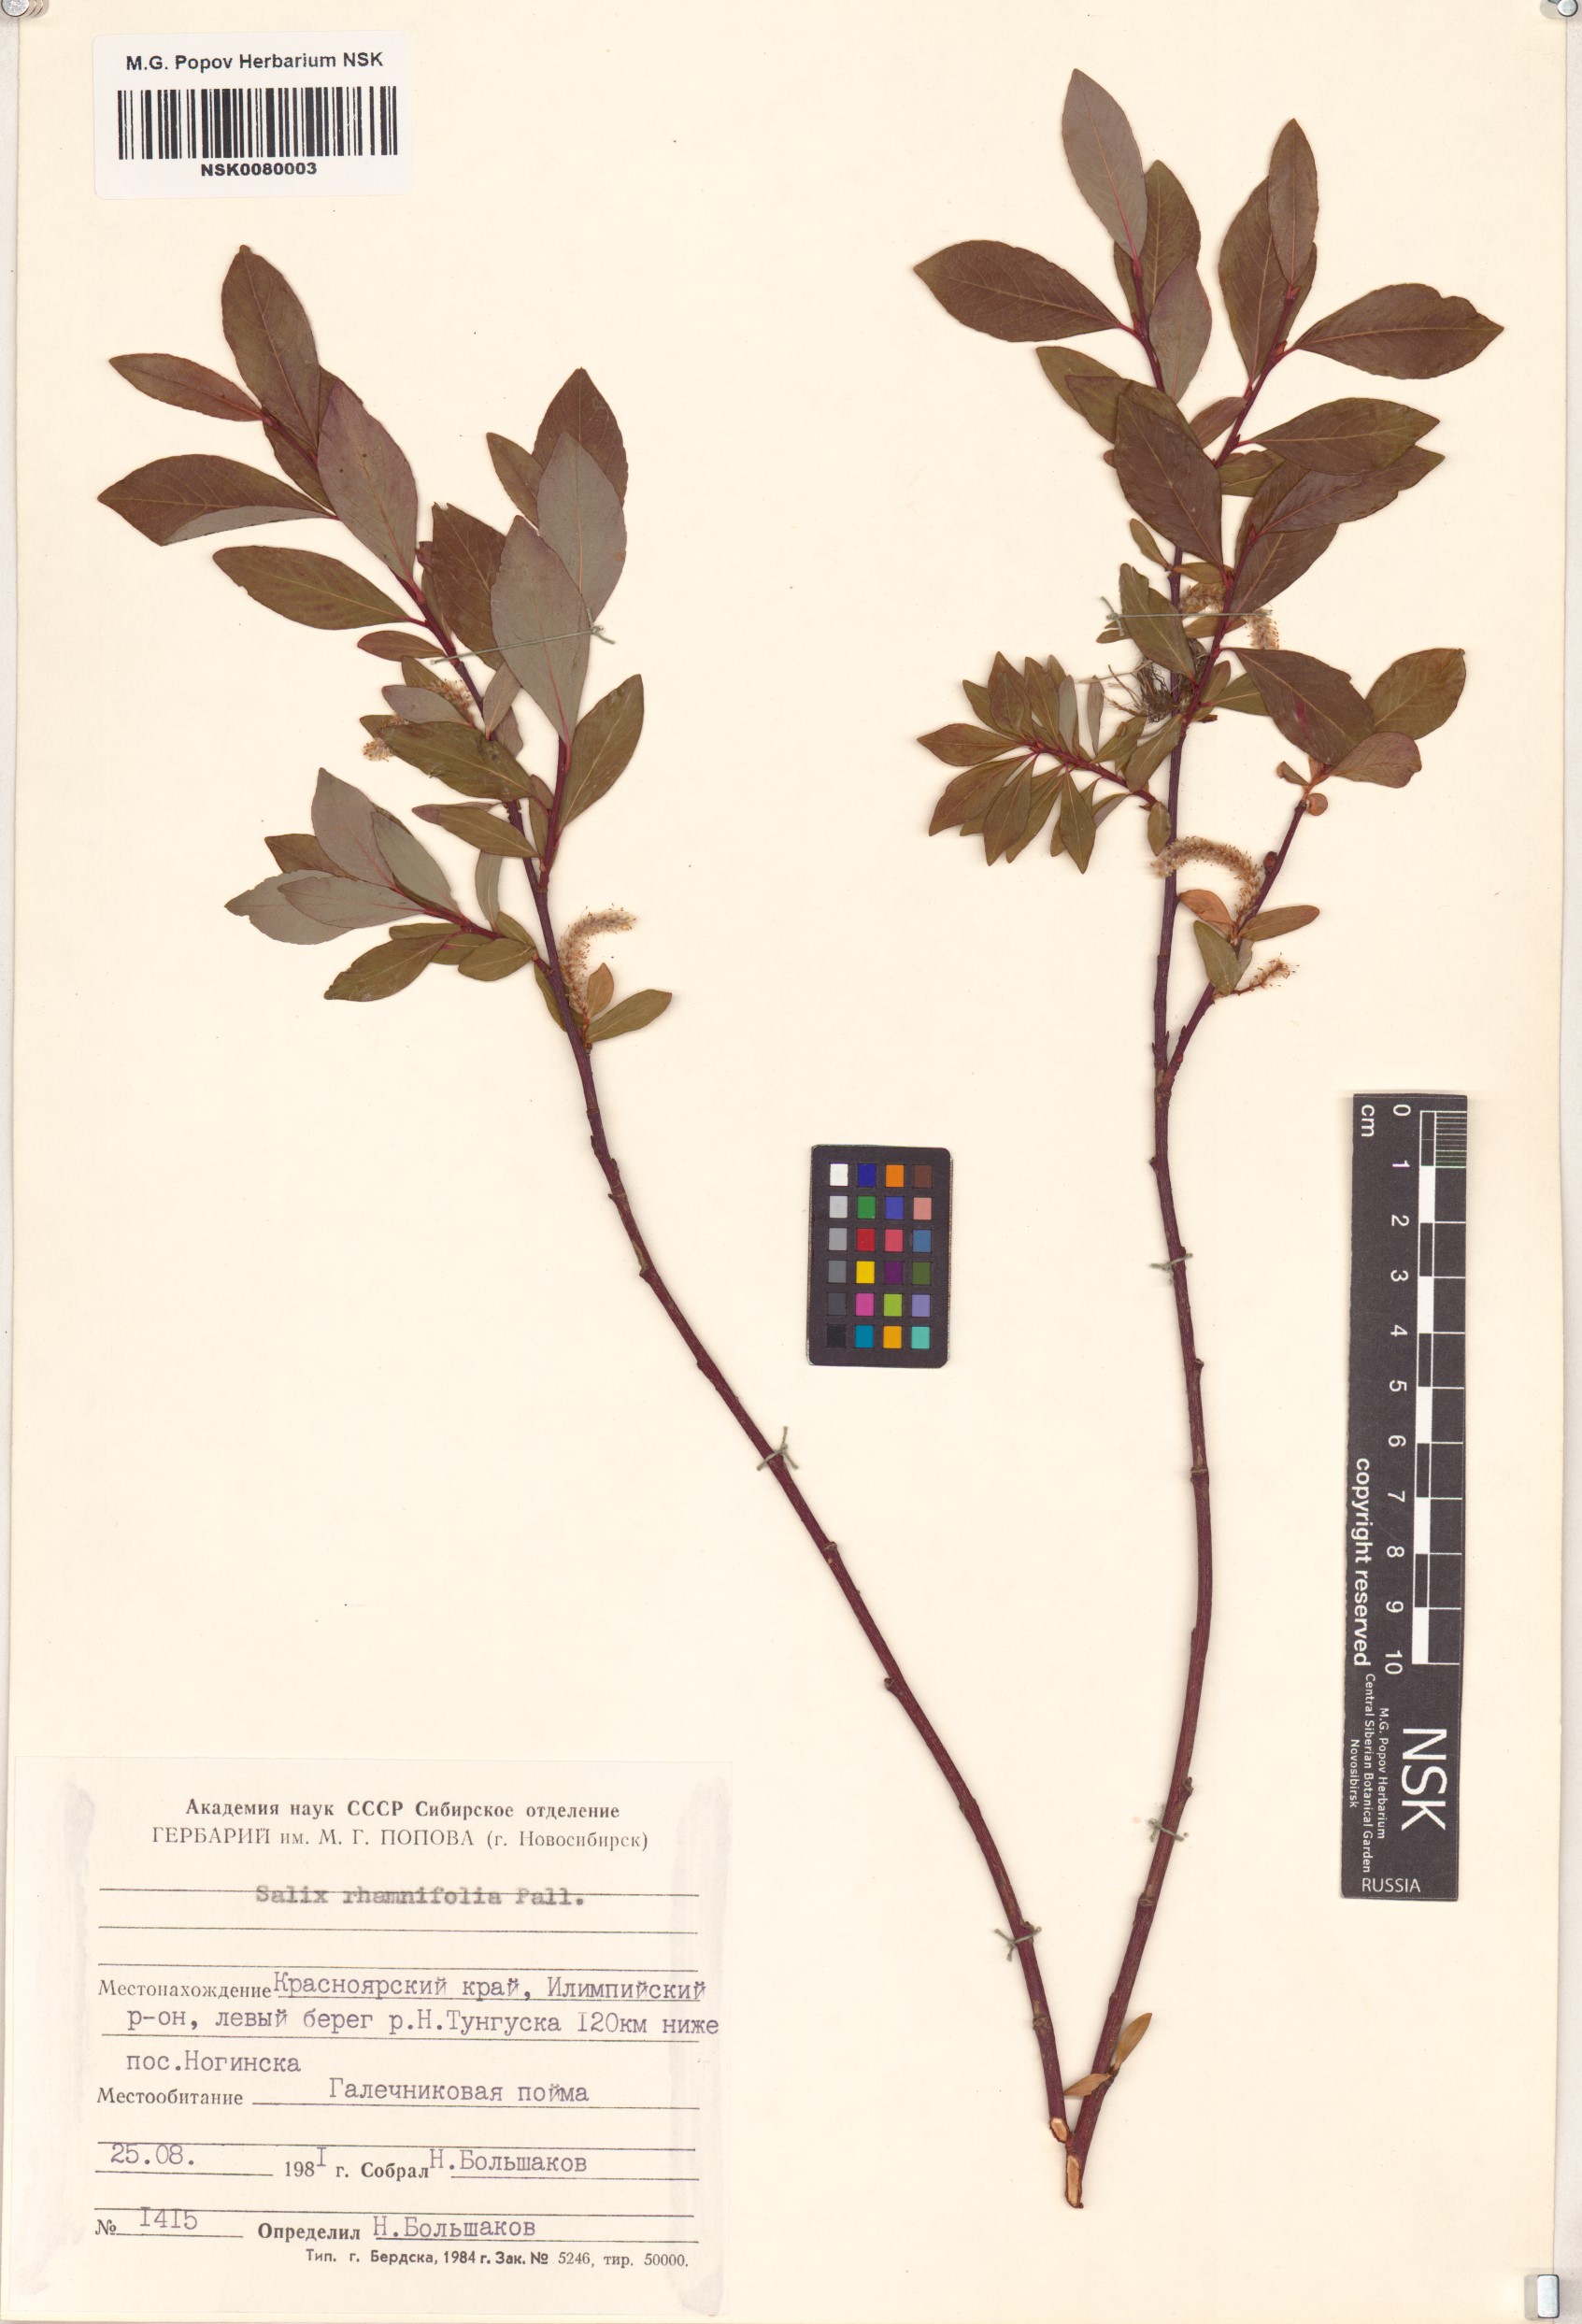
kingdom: Plantae
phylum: Tracheophyta
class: Magnoliopsida
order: Malpighiales
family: Salicaceae
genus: Salix
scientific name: Salix rhamnifolia
